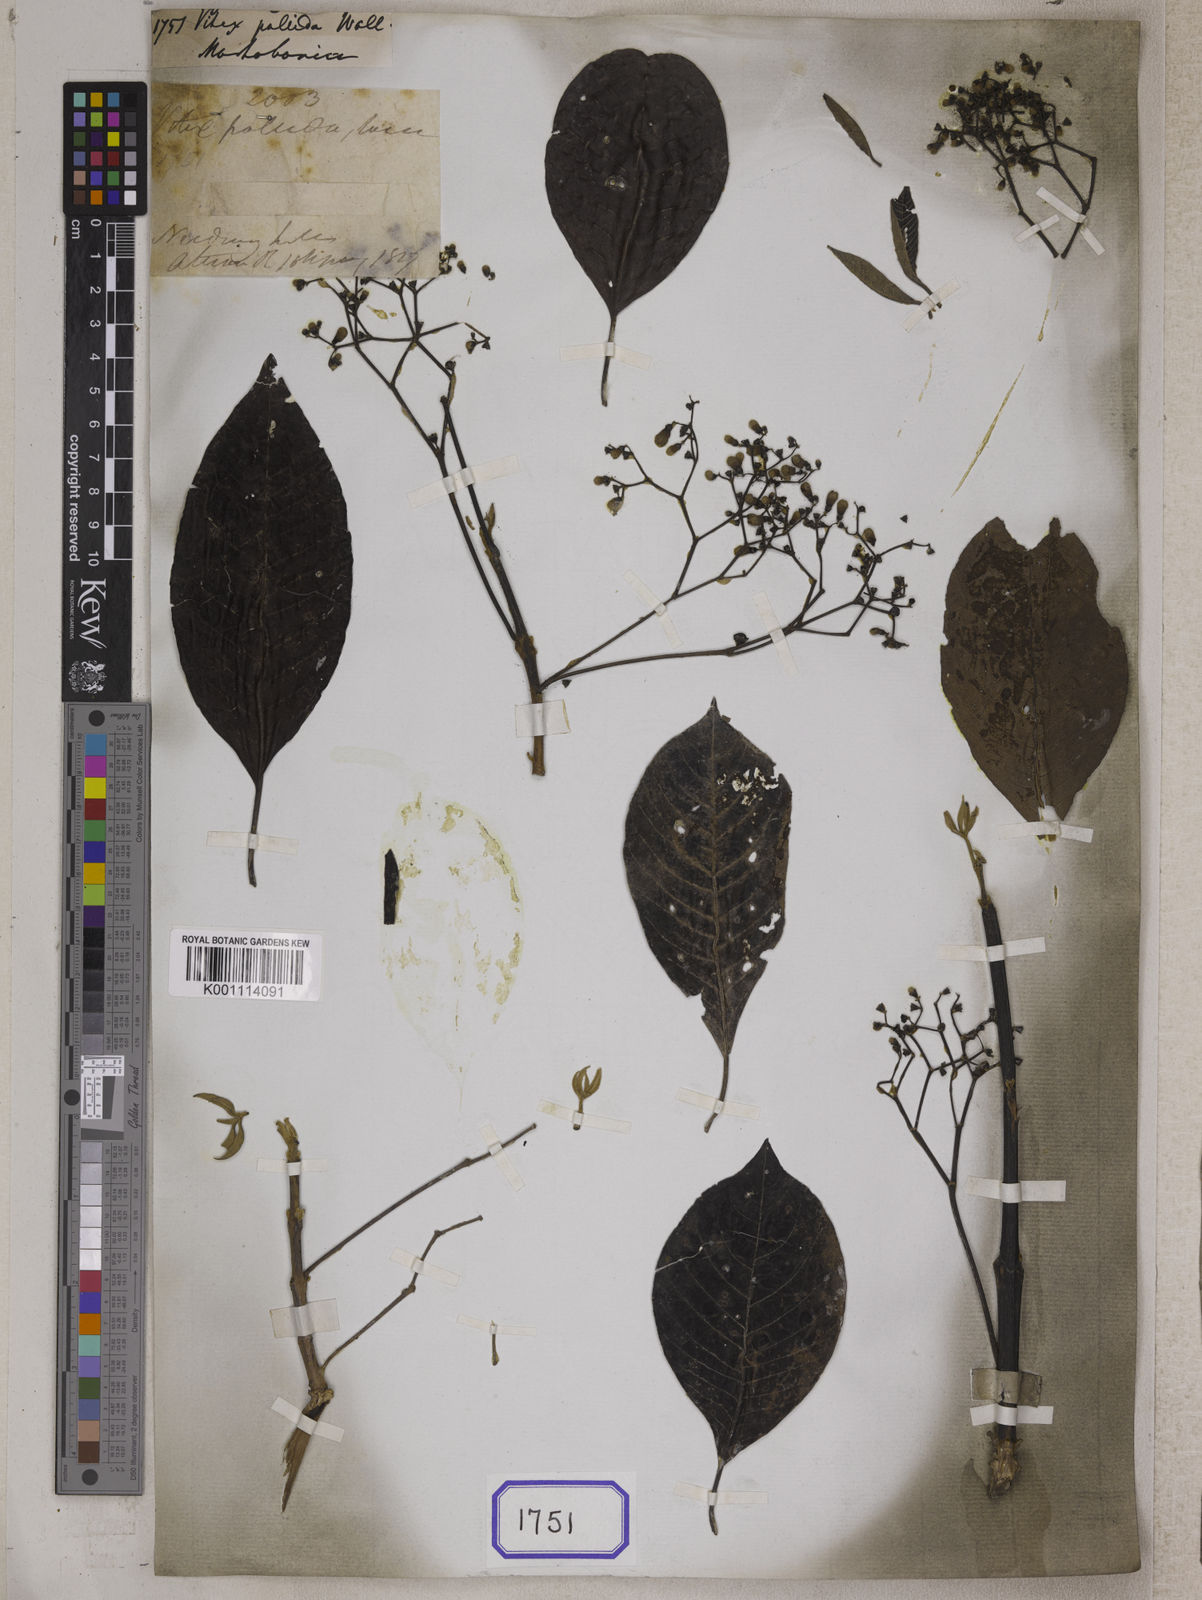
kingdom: Plantae
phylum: Tracheophyta
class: Magnoliopsida
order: Lamiales
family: Lamiaceae
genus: Vitex
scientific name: Vitex
